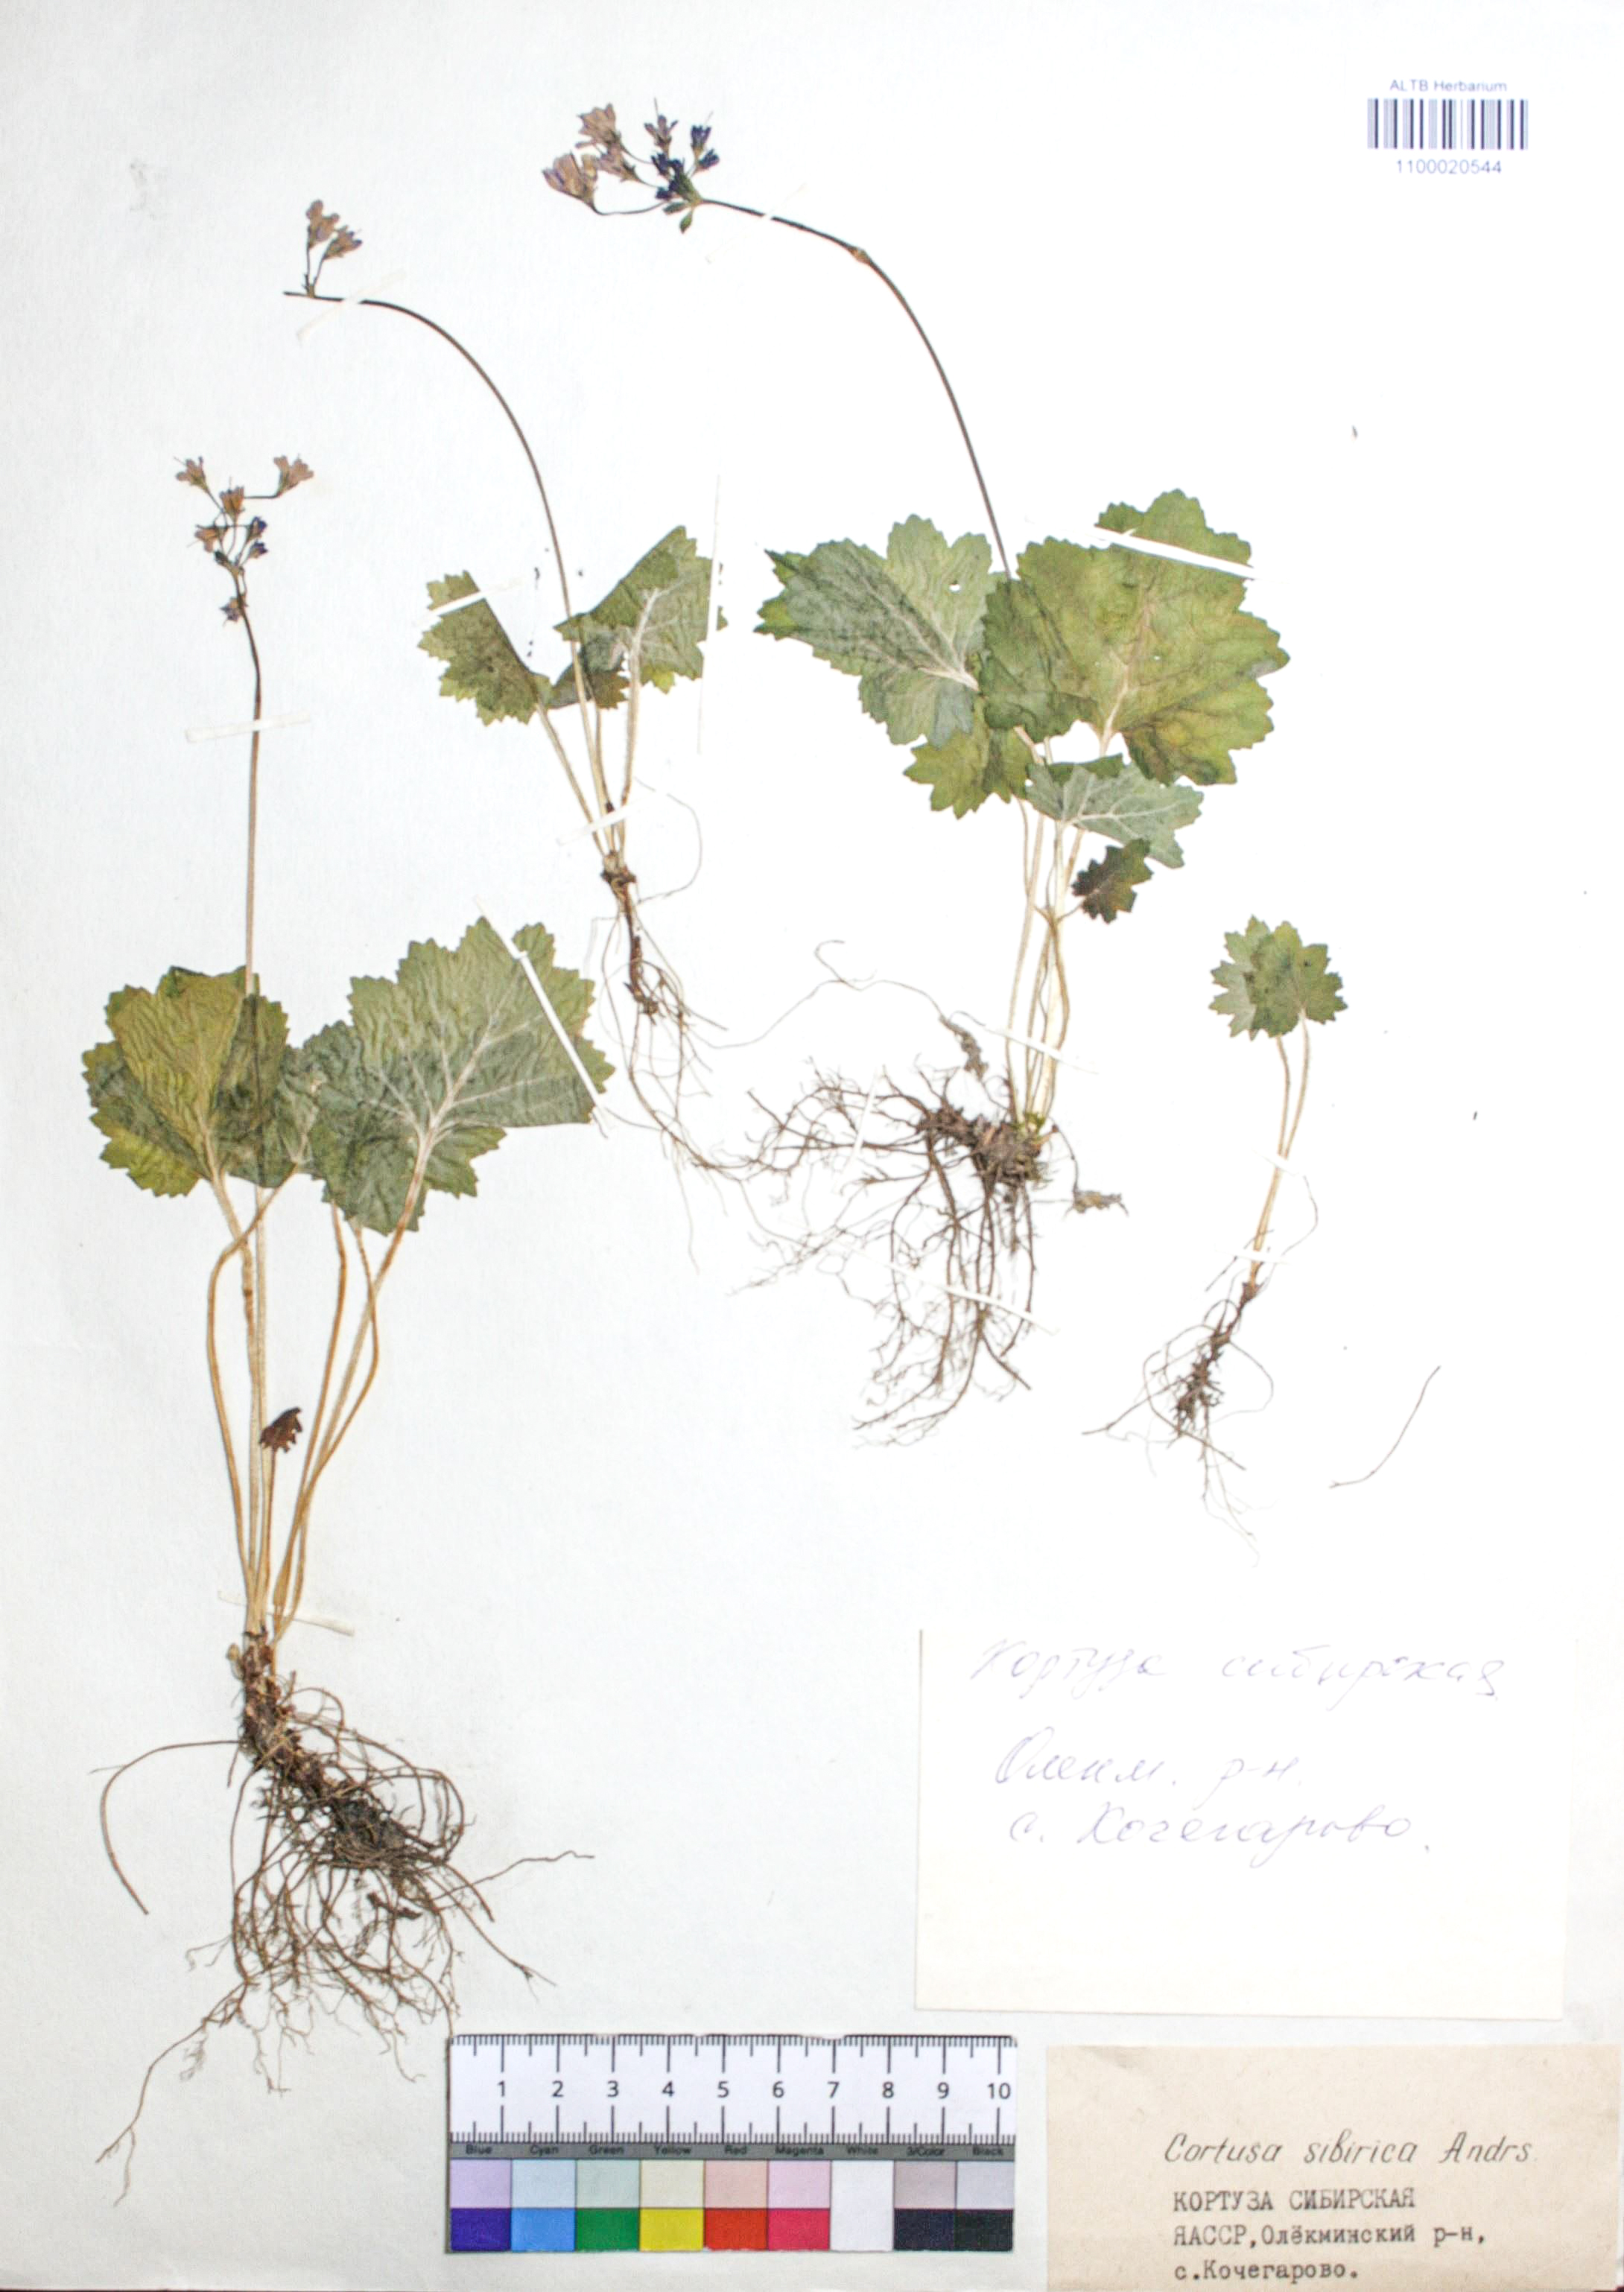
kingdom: Plantae
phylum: Tracheophyta
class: Magnoliopsida
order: Ericales
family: Primulaceae
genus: Primula
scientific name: Primula matthioli
